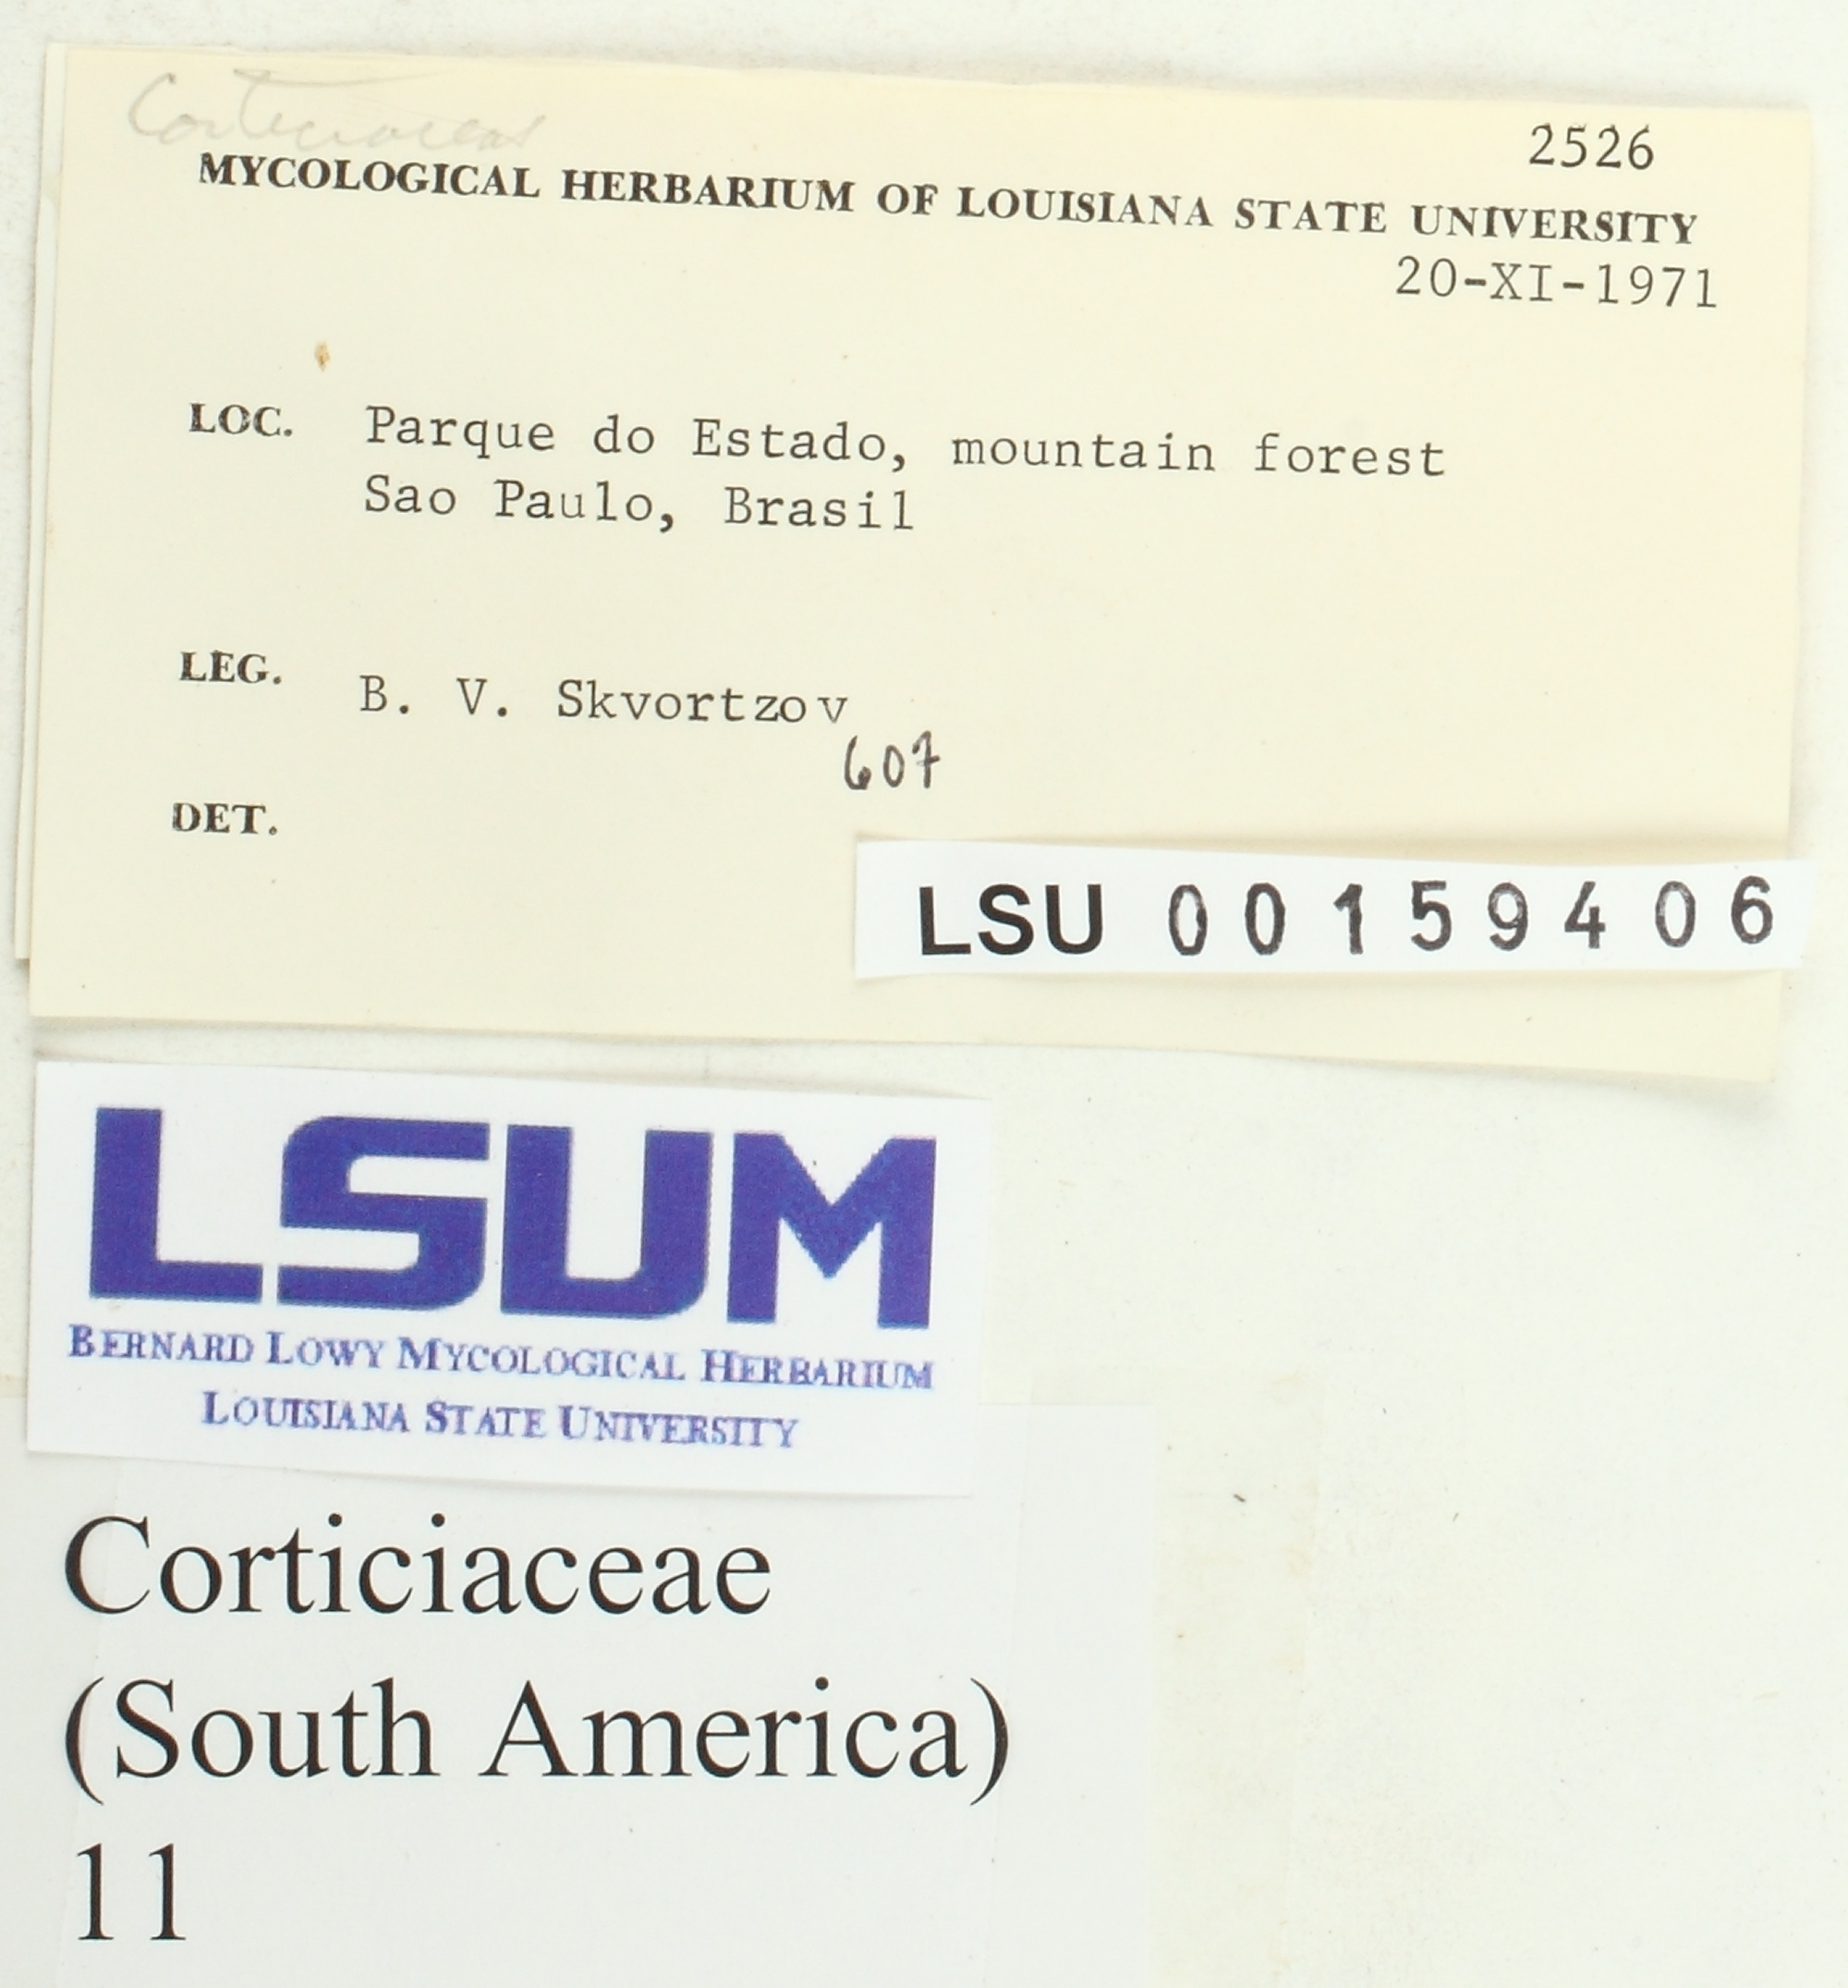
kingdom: Fungi
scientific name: Fungi
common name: Fungi
